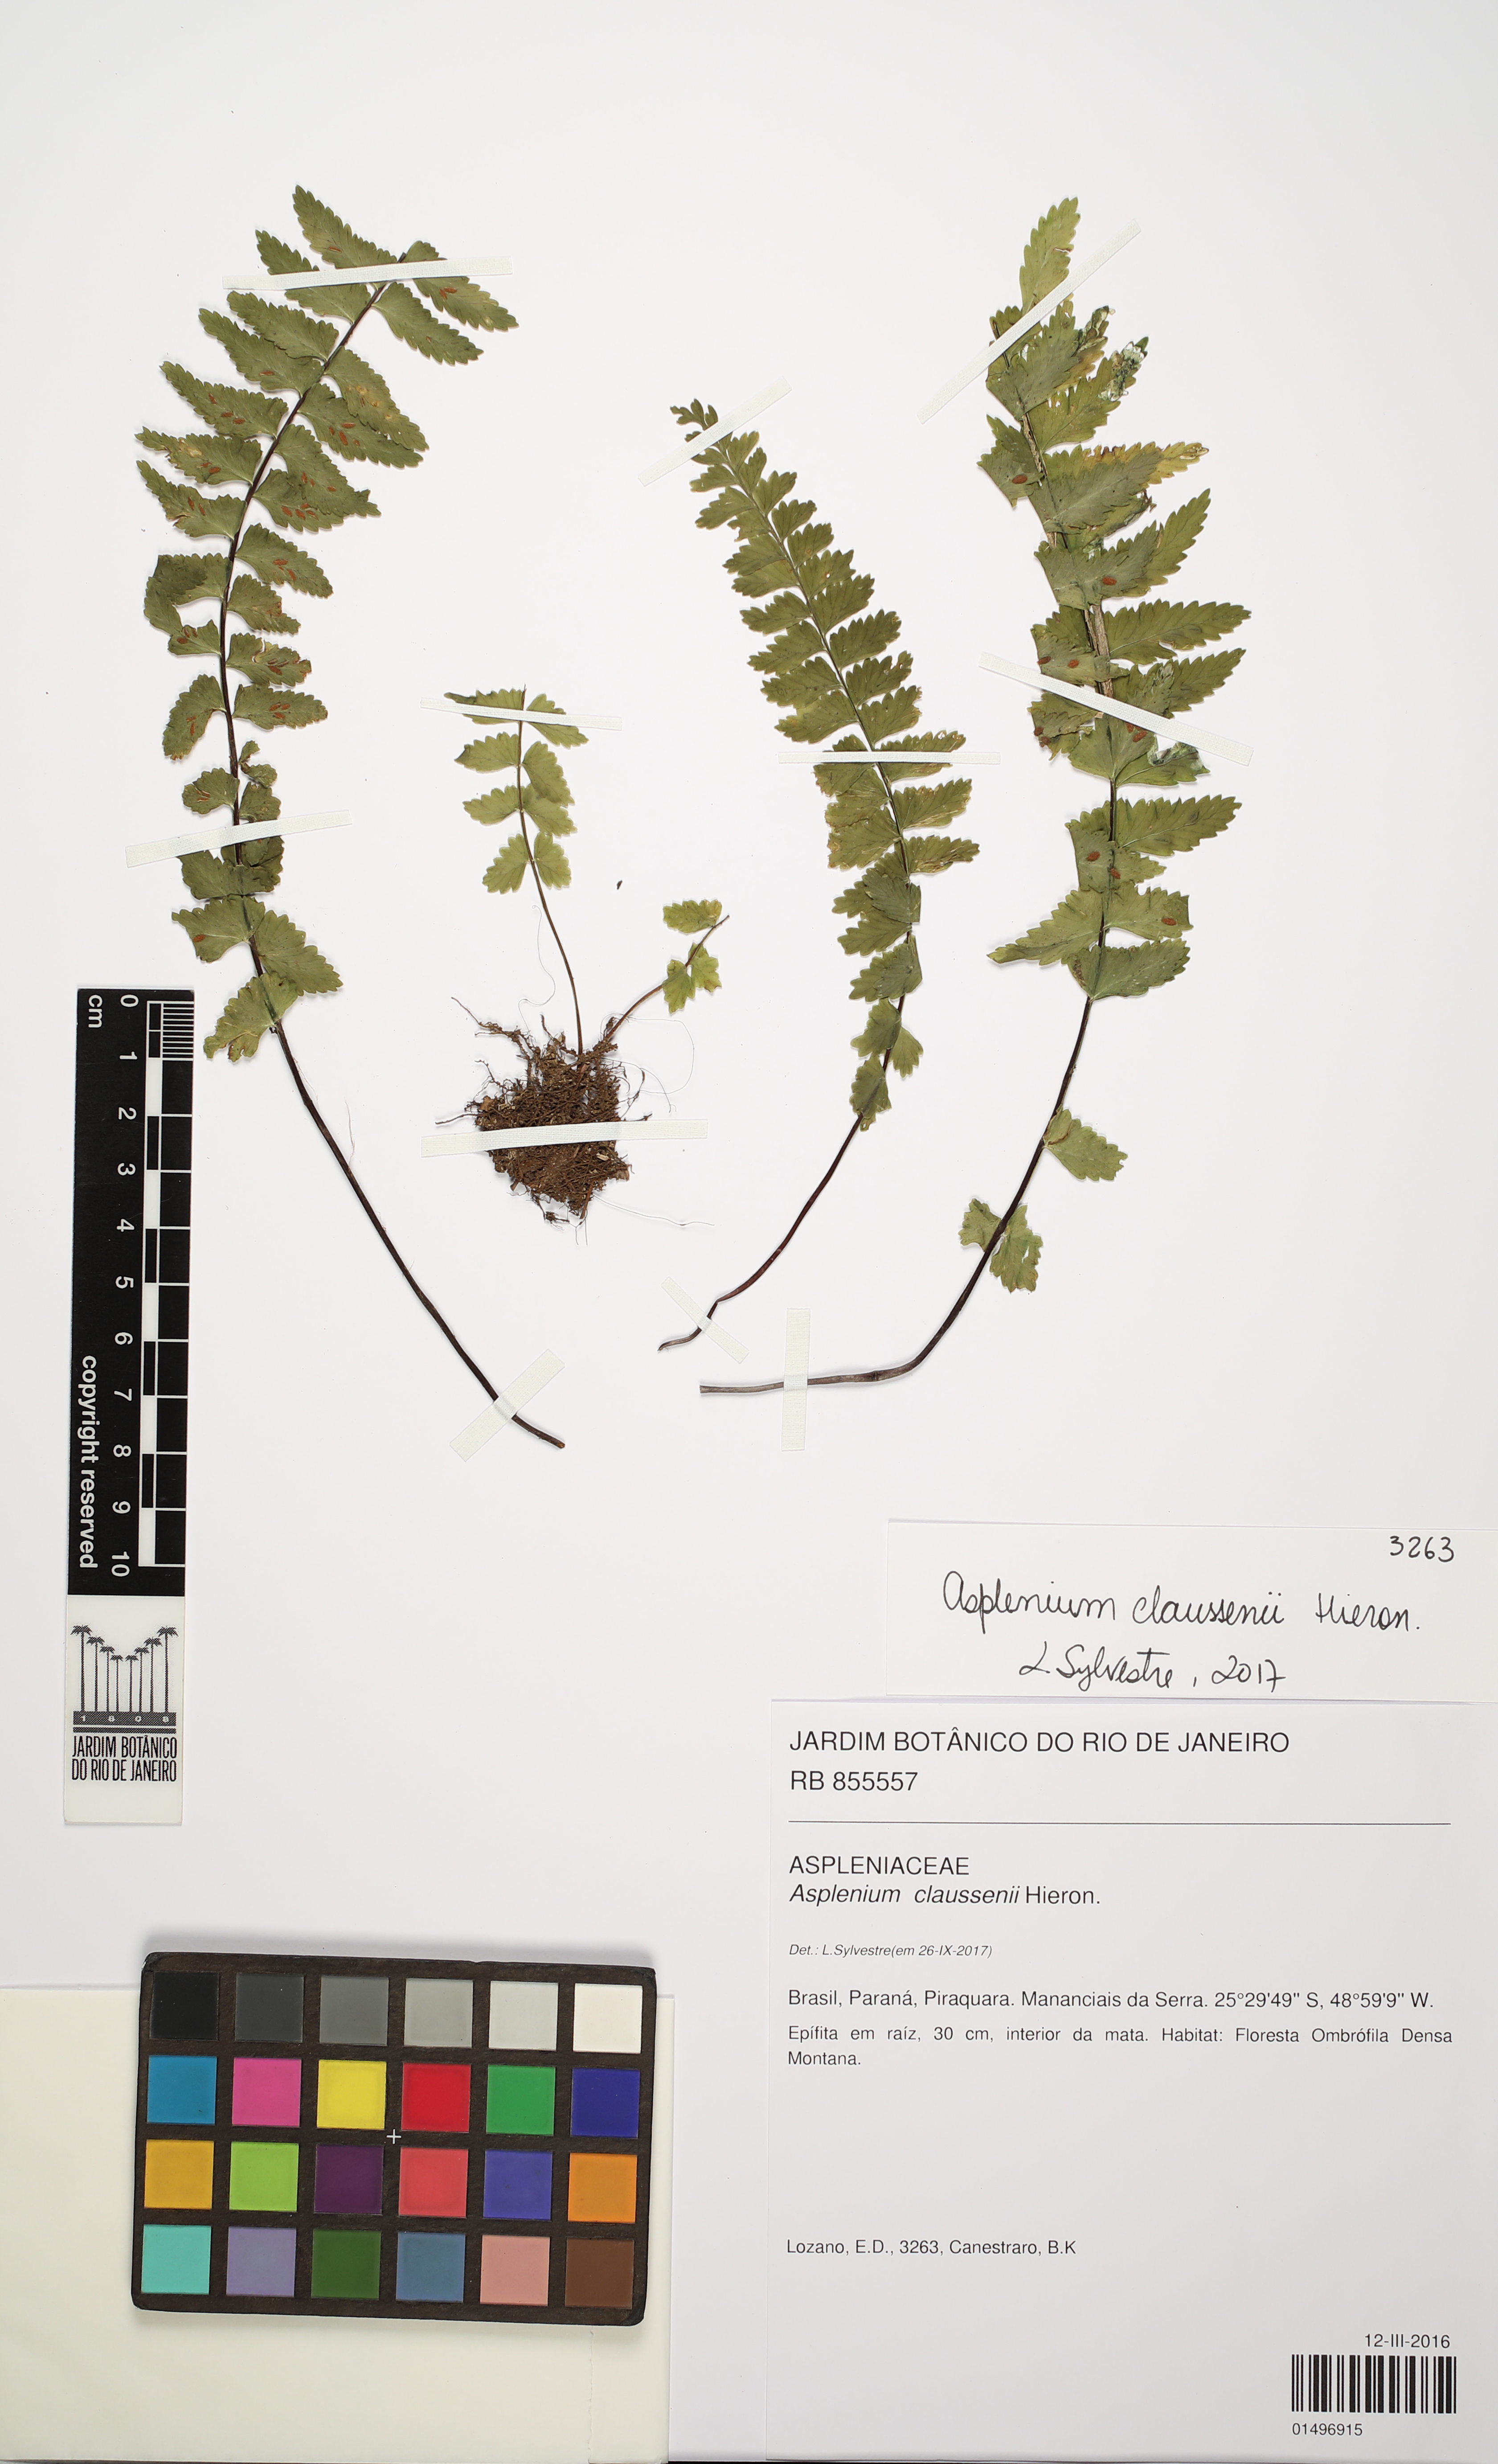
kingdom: Plantae
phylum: Tracheophyta
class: Polypodiopsida
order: Polypodiales
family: Aspleniaceae
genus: Asplenium
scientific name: Asplenium claussenii
